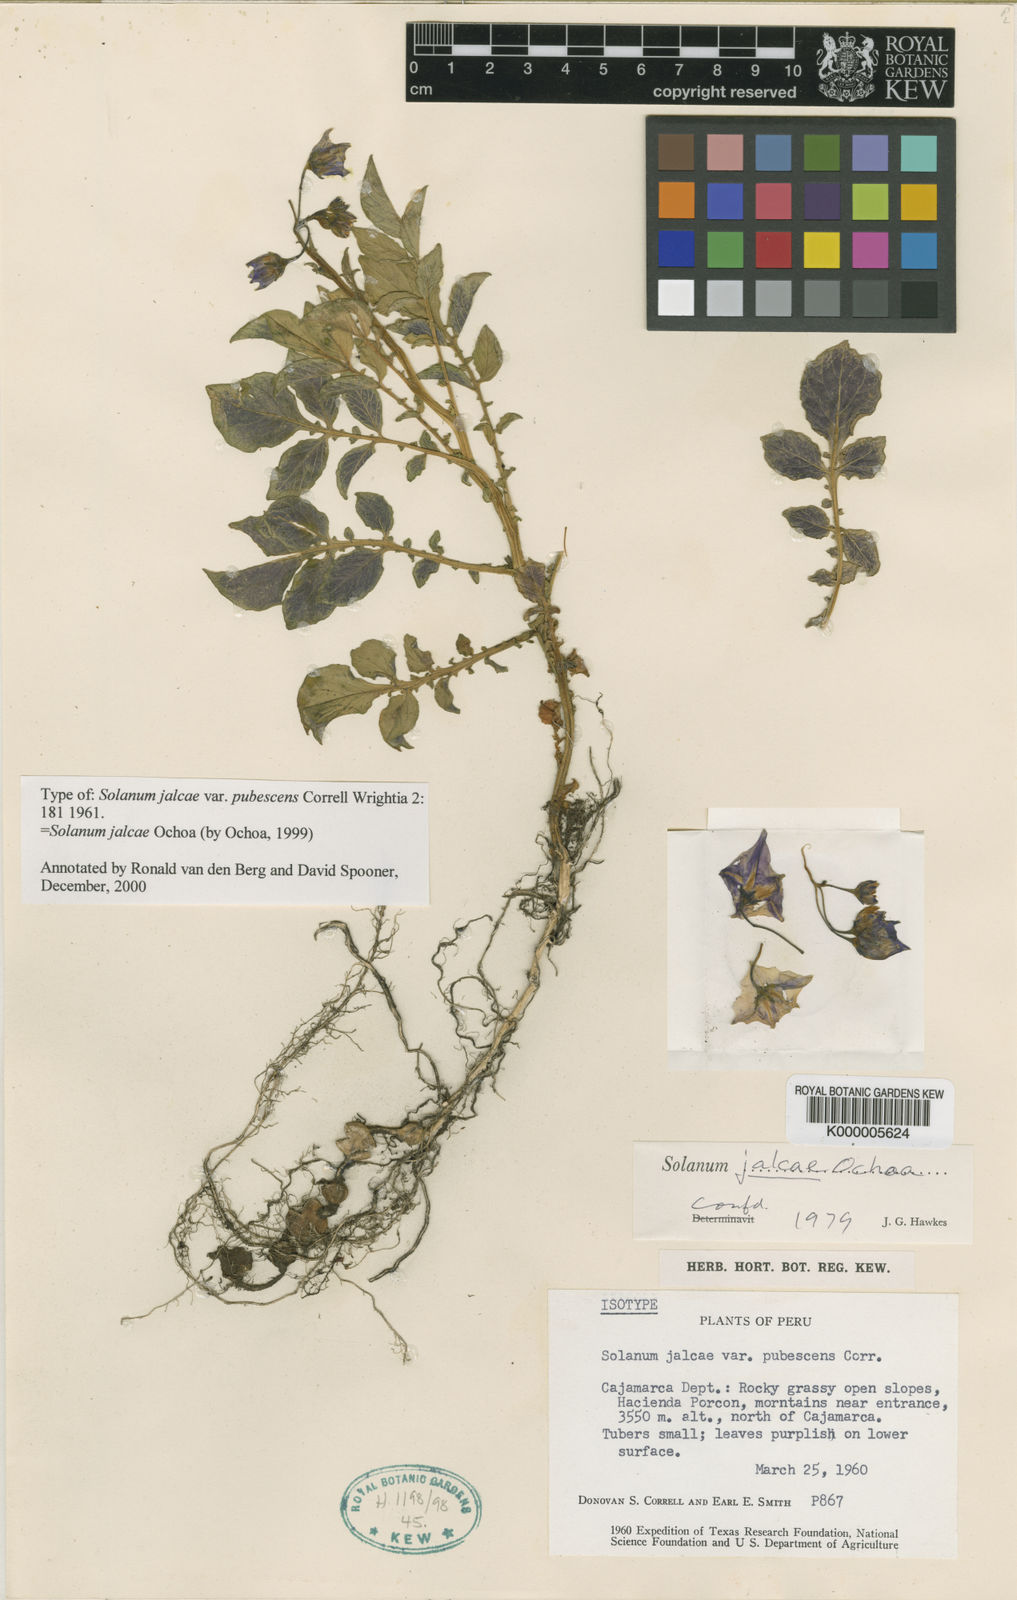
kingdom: Plantae
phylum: Tracheophyta
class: Magnoliopsida
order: Solanales
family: Solanaceae
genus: Solanum
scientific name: Solanum chomatophilum
